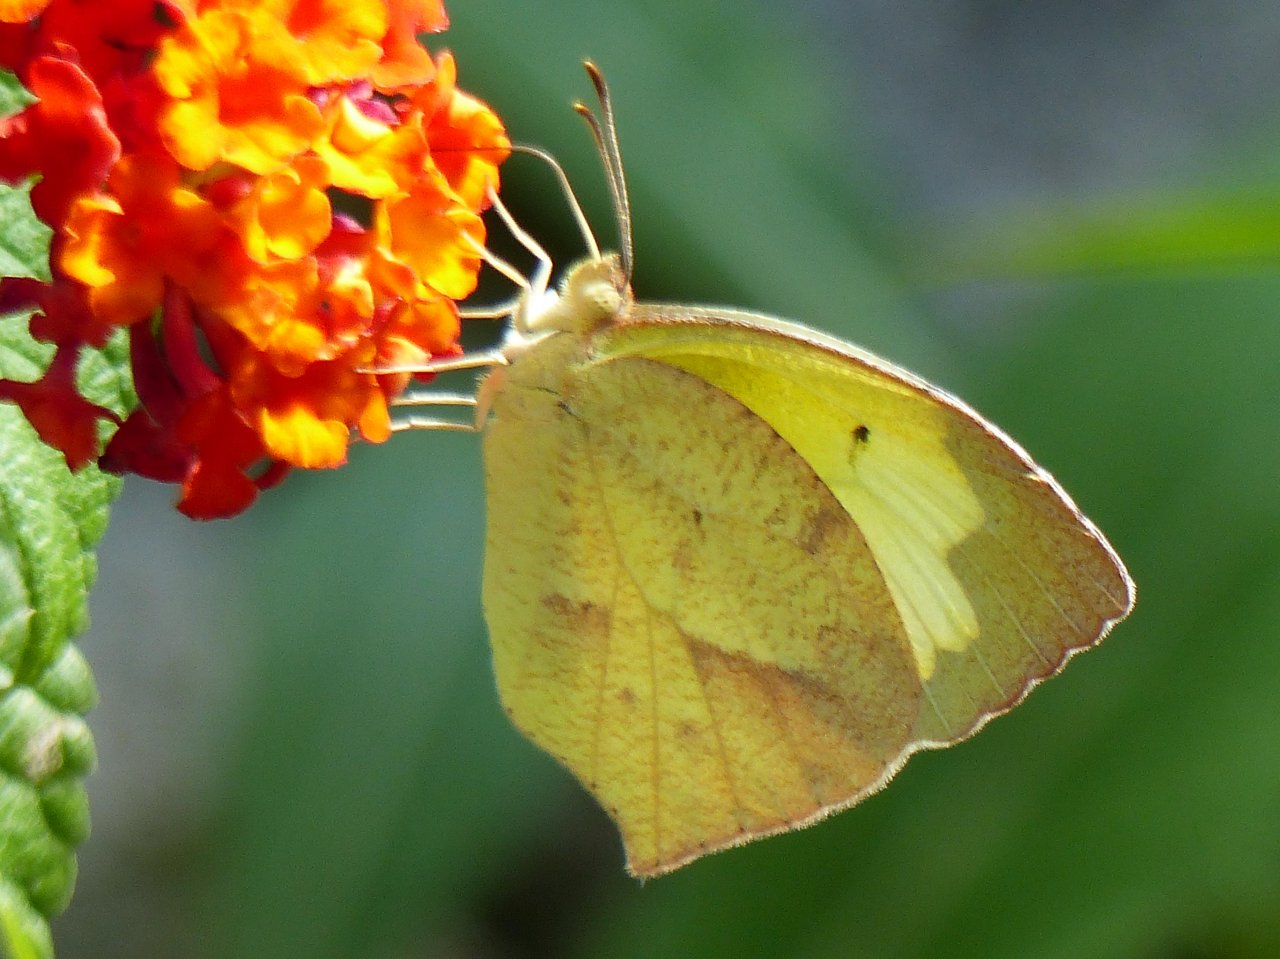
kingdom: Animalia
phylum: Arthropoda
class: Insecta
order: Lepidoptera
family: Pieridae
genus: Eurema
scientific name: Eurema boisduvaliana
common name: Boisduval's Yellow
